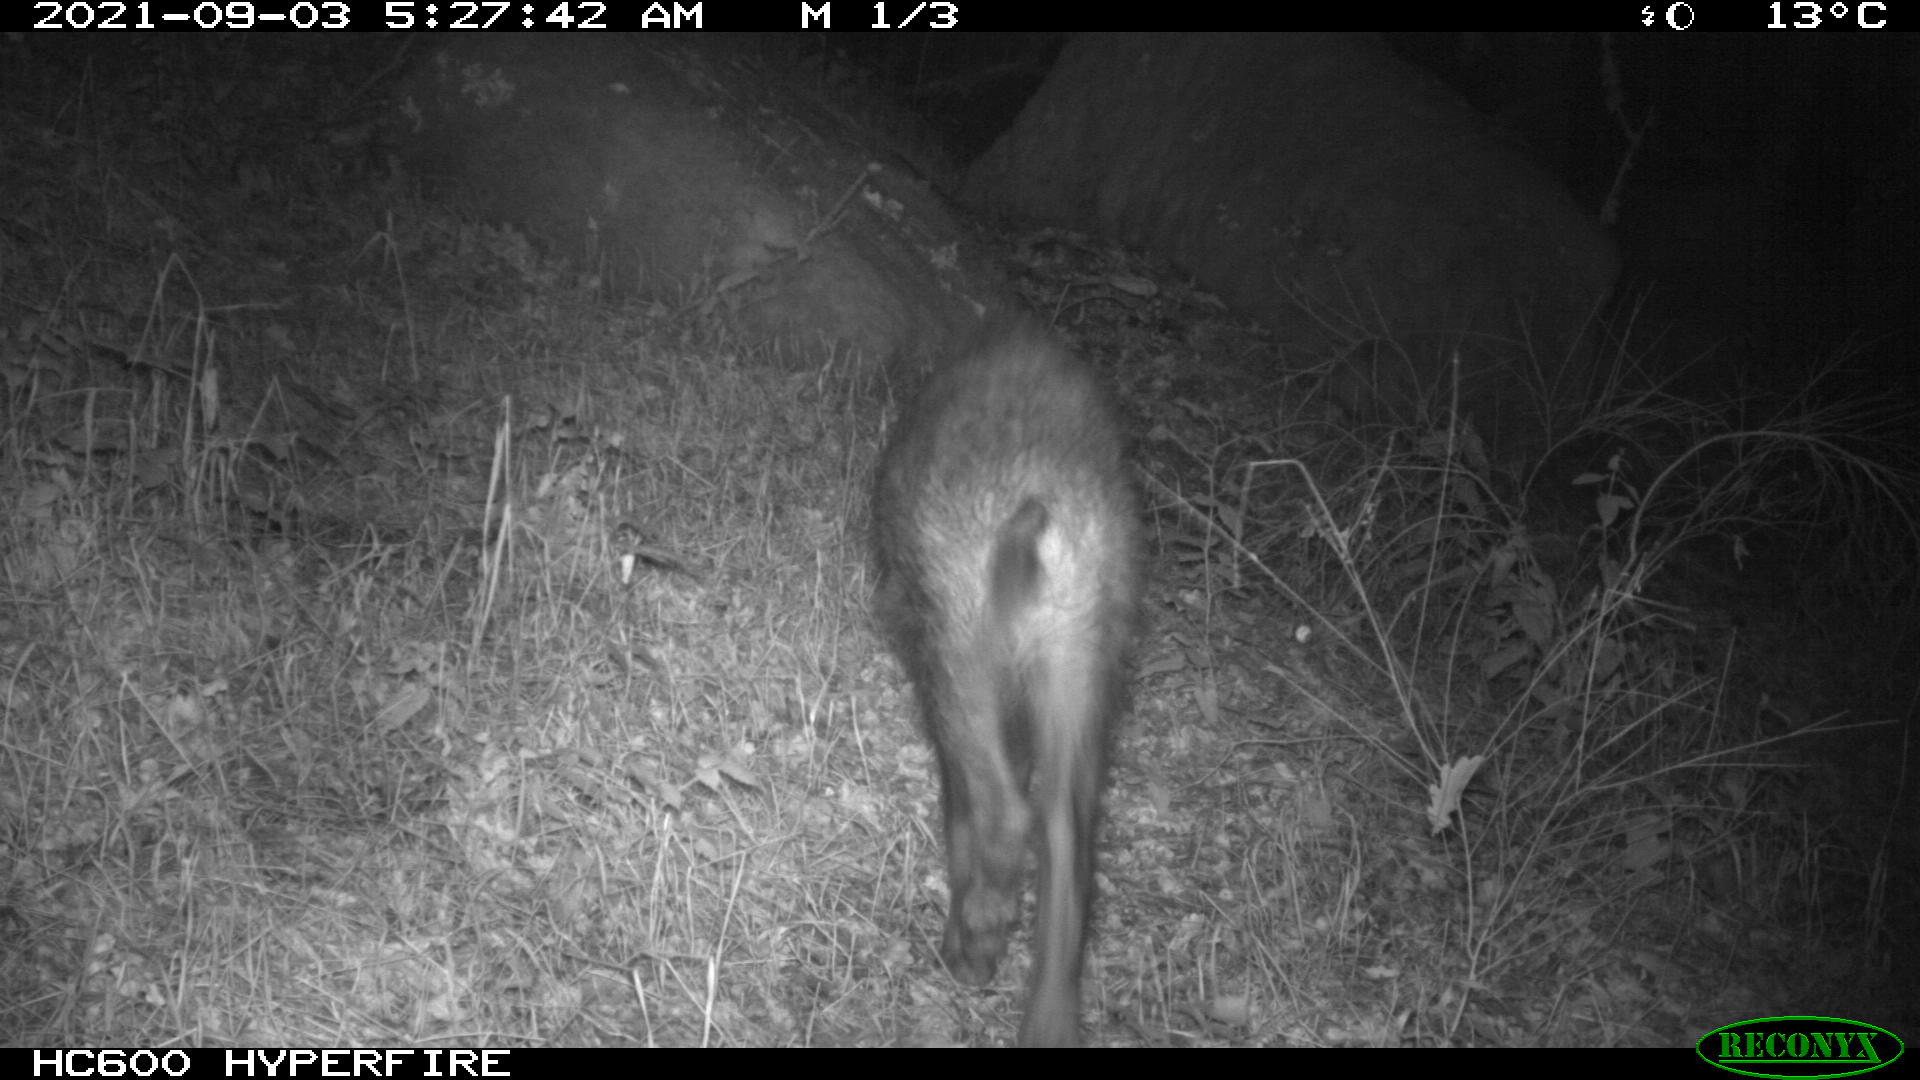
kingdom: Animalia
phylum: Chordata
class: Mammalia
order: Artiodactyla
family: Suidae
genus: Sus
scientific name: Sus scrofa
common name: Wild boar
